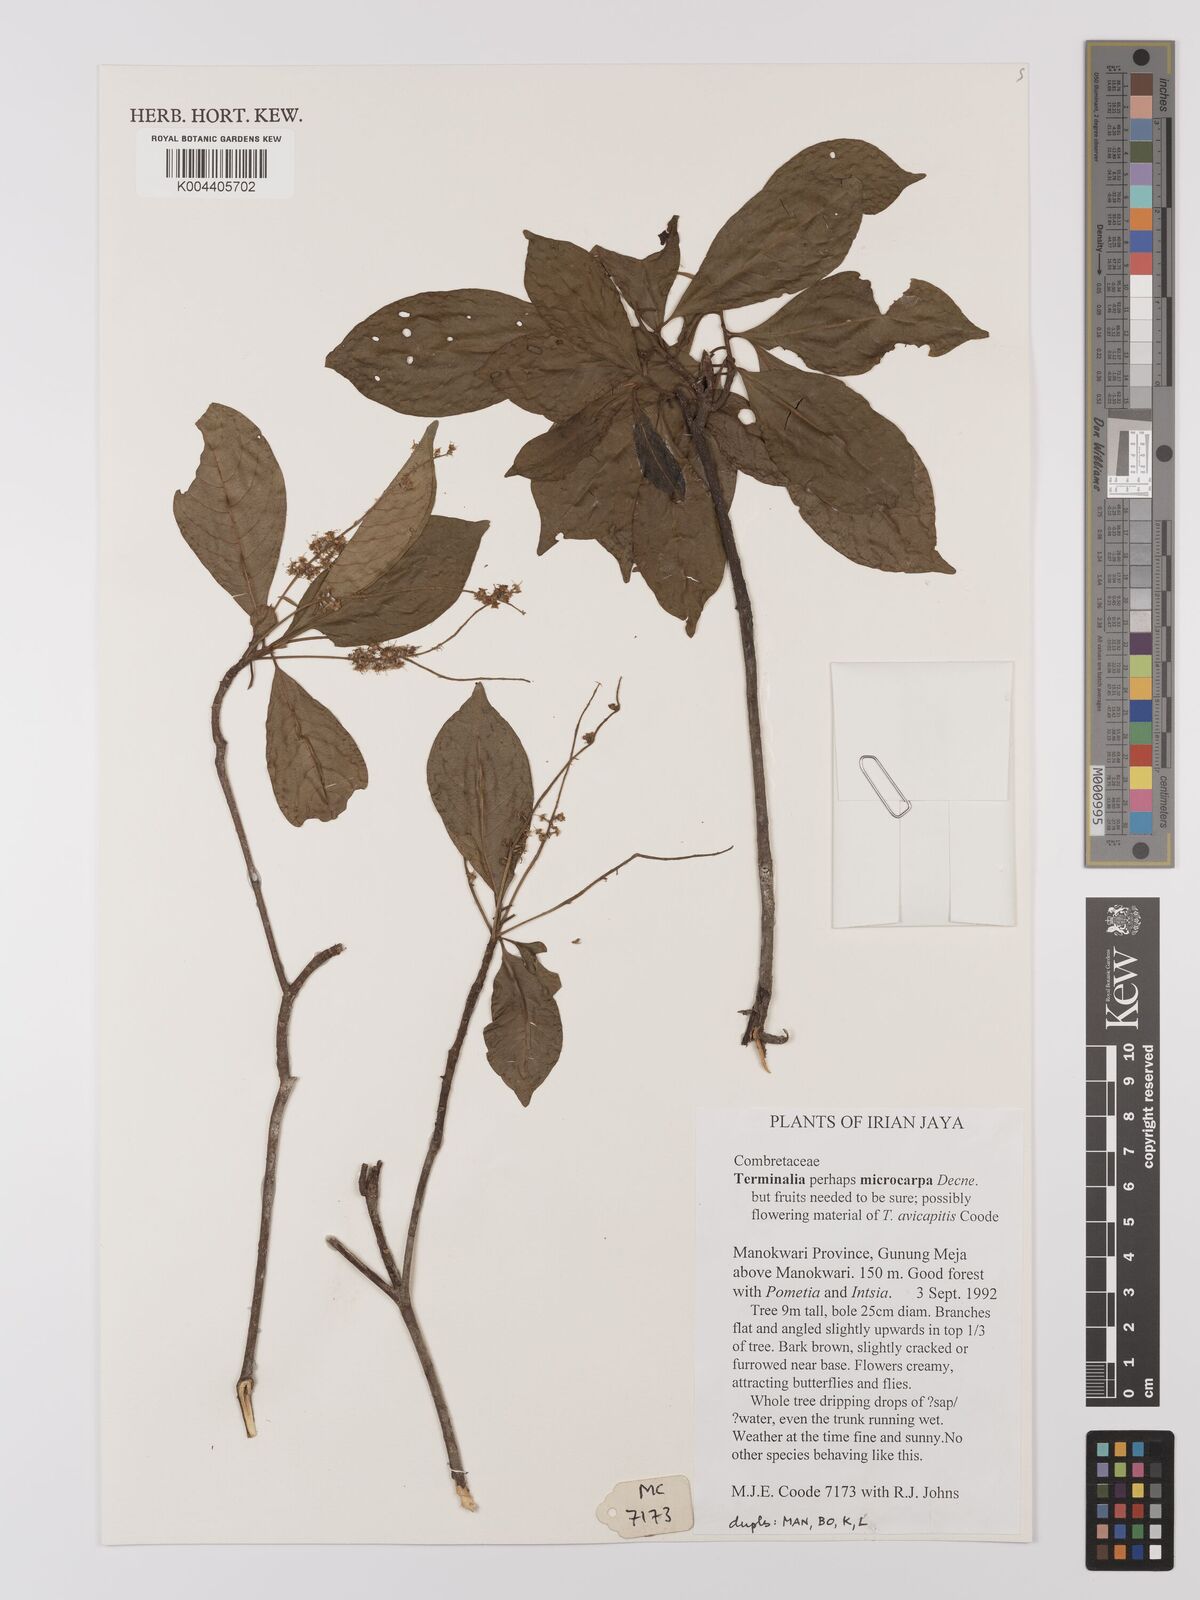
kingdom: Plantae
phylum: Tracheophyta
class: Magnoliopsida
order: Myrtales
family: Combretaceae
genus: Terminalia
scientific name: Terminalia
